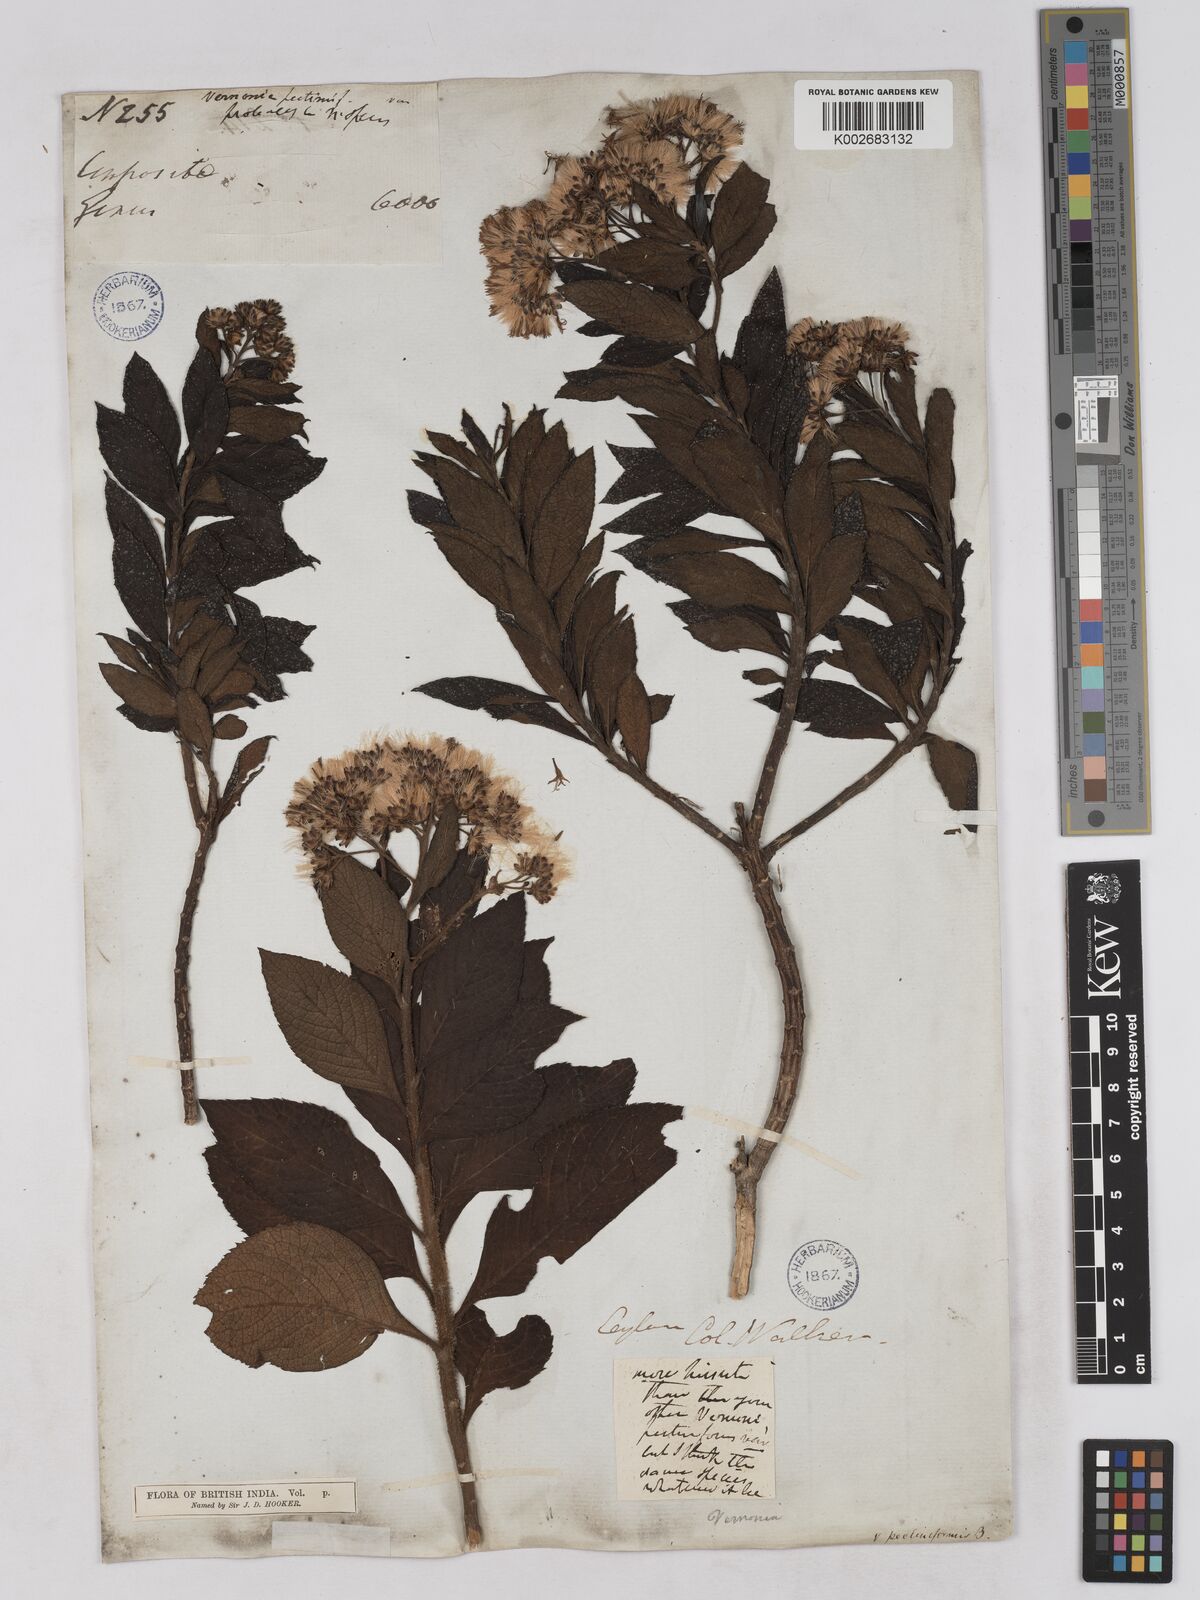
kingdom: Plantae
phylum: Tracheophyta
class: Magnoliopsida
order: Asterales
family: Asteraceae
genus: Gymnanthemum
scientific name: Gymnanthemum pectiniforme
